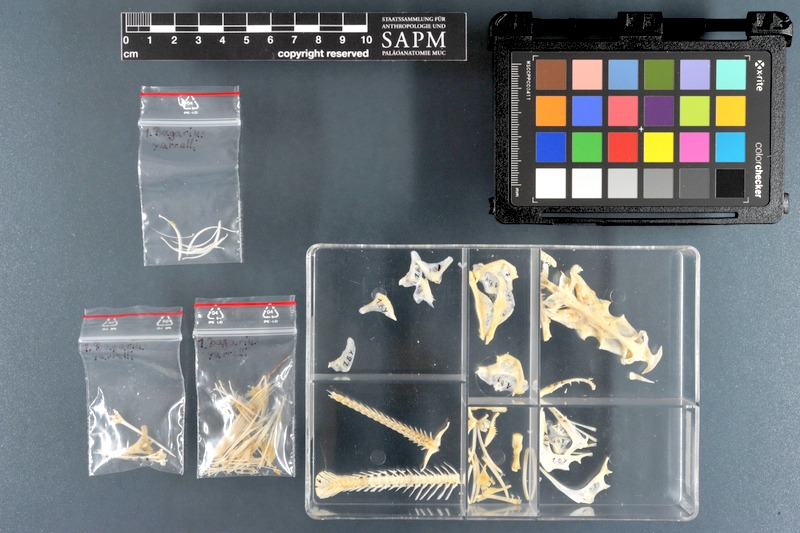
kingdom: Animalia
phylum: Chordata
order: Siluriformes
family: Sisoridae
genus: Bagarius
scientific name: Bagarius yarrelli
